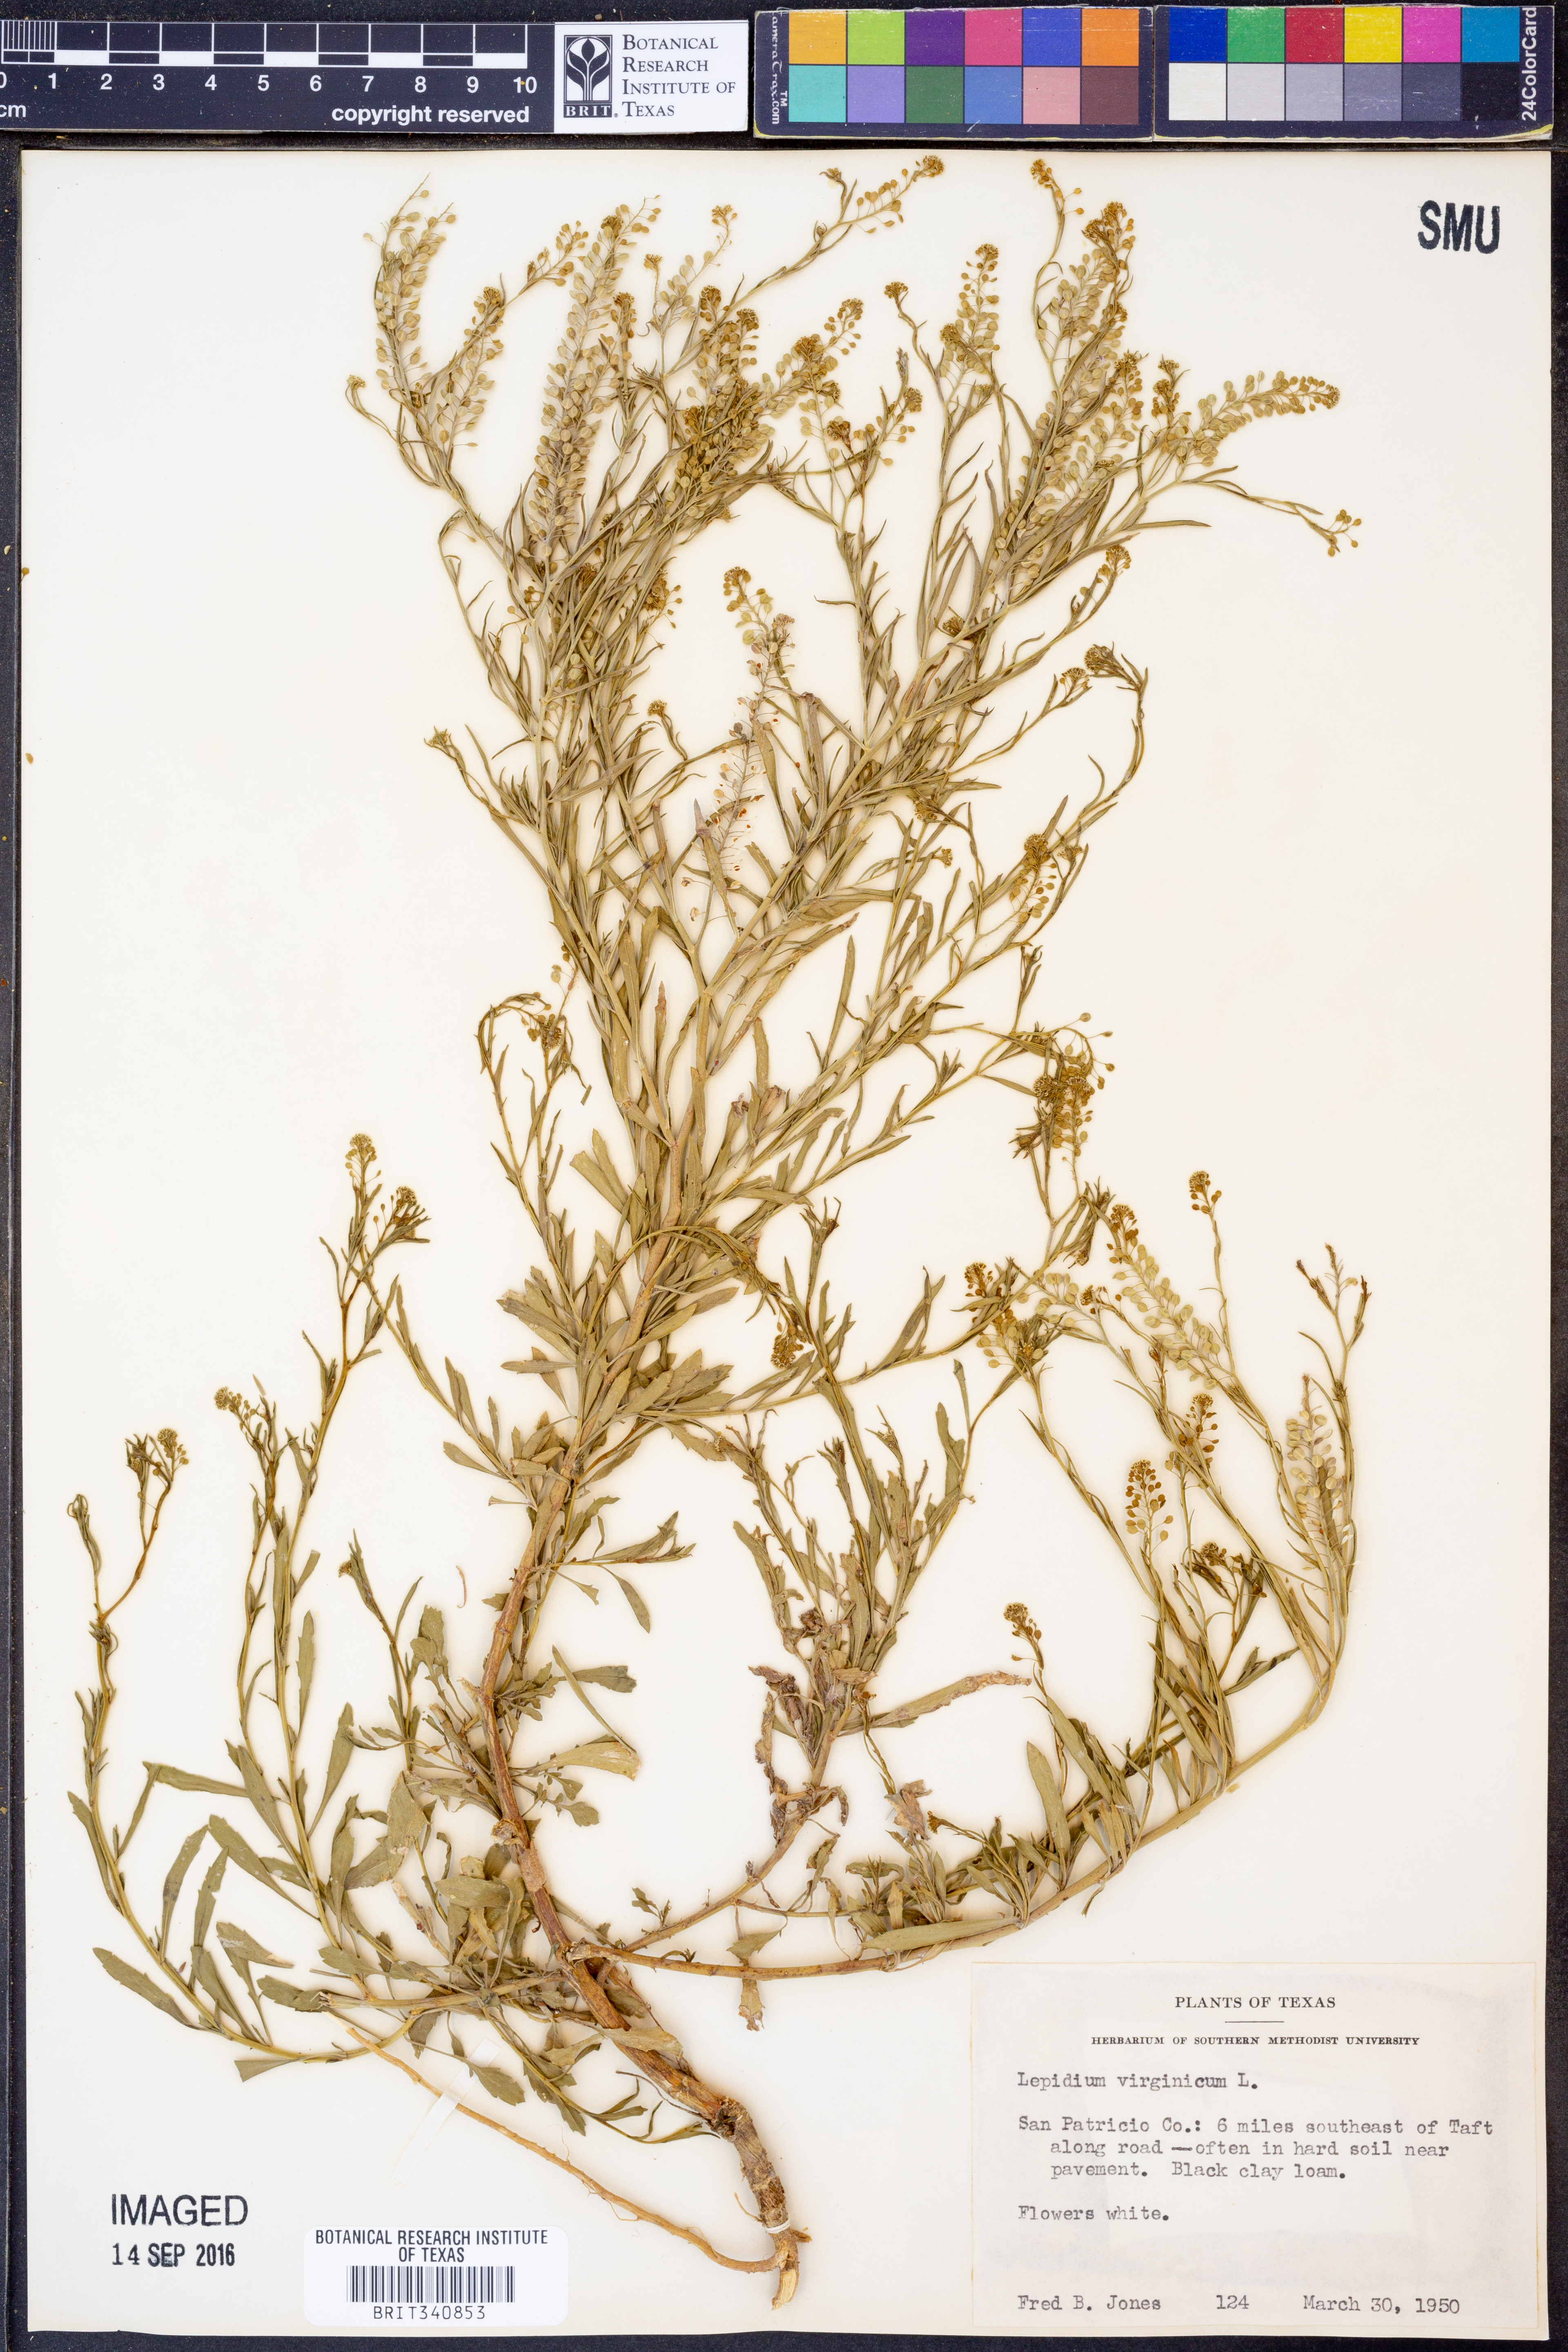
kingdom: Plantae
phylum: Tracheophyta
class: Magnoliopsida
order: Brassicales
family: Brassicaceae
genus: Lepidium
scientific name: Lepidium virginicum
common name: Least pepperwort
